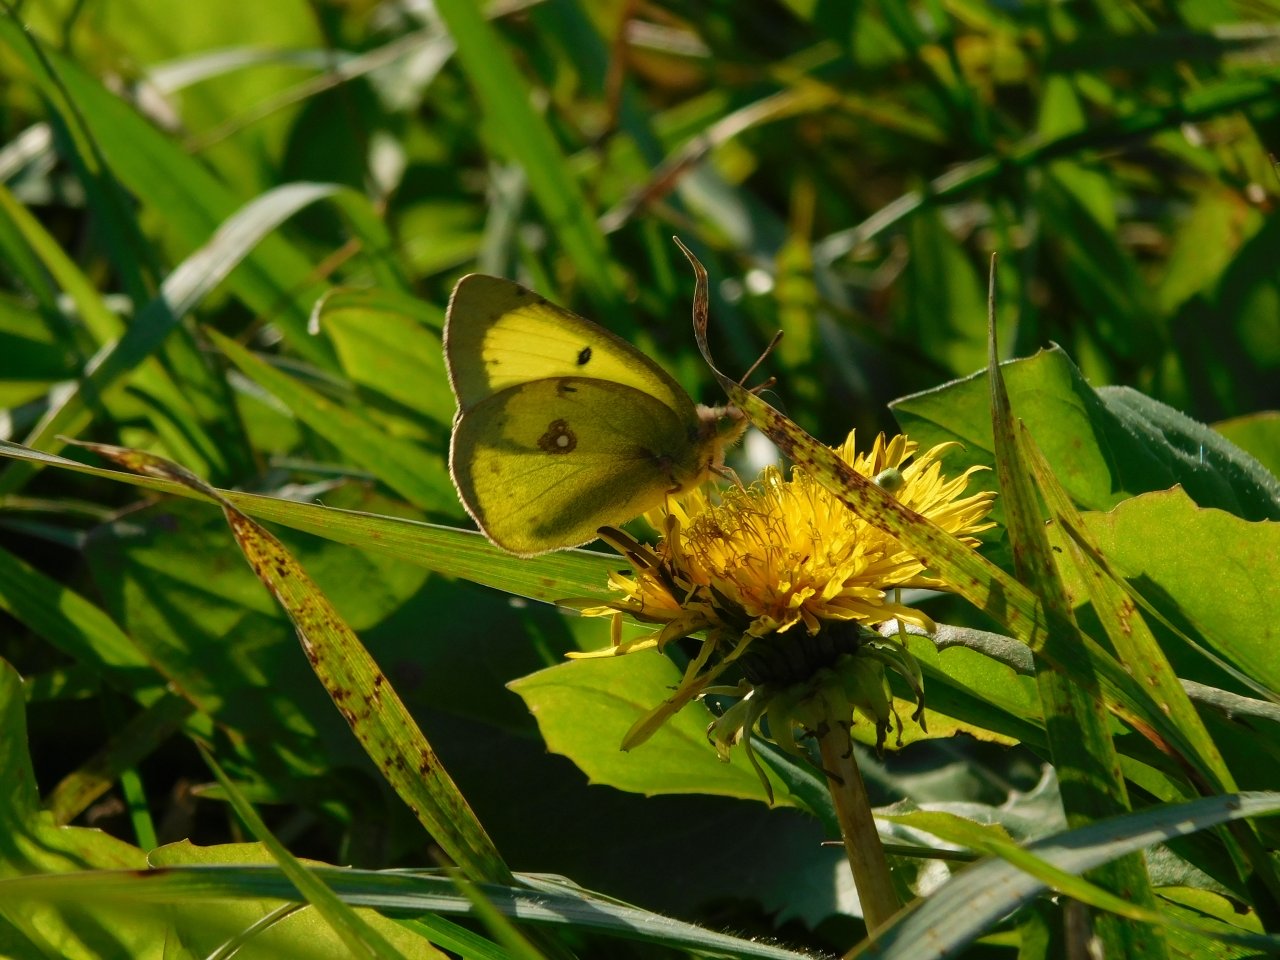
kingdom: Animalia
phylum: Arthropoda
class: Insecta
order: Lepidoptera
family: Pieridae
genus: Colias
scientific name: Colias philodice
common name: Clouded Sulphur
